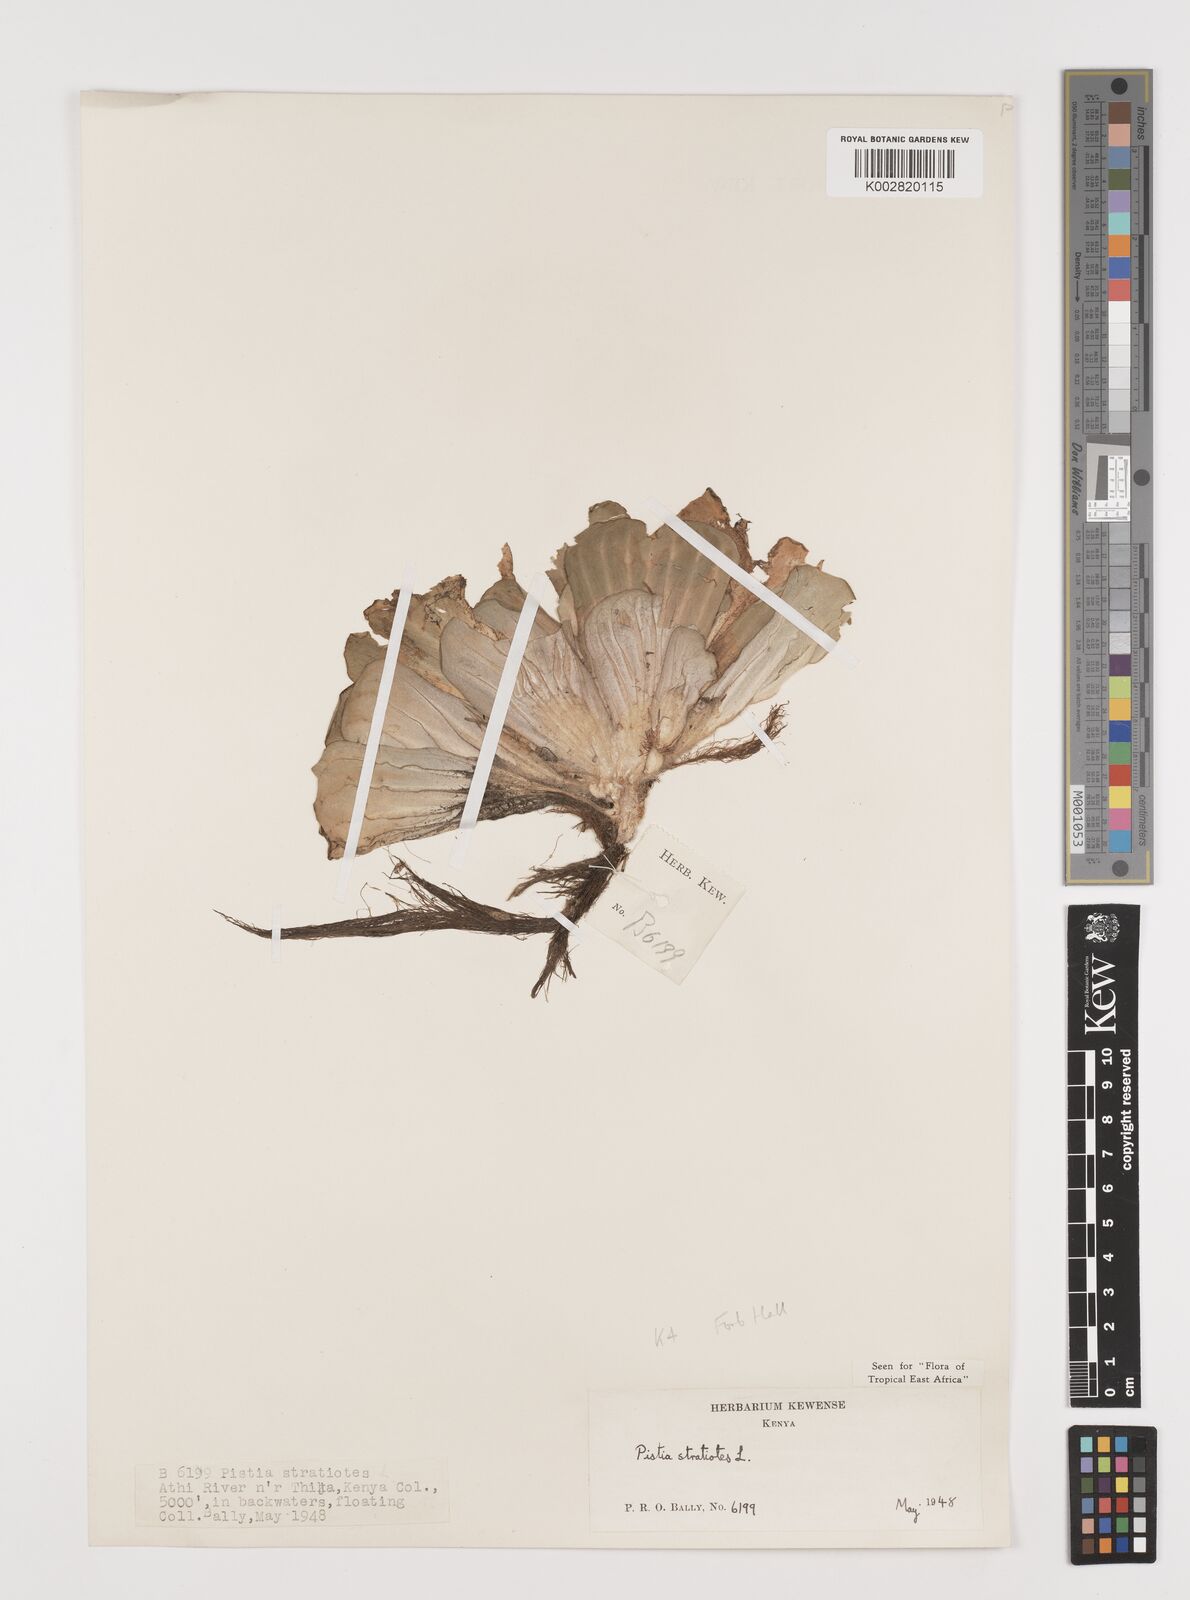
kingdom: Plantae
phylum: Tracheophyta
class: Liliopsida
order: Alismatales
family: Araceae
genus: Pistia
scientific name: Pistia stratiotes
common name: Water lettuce
